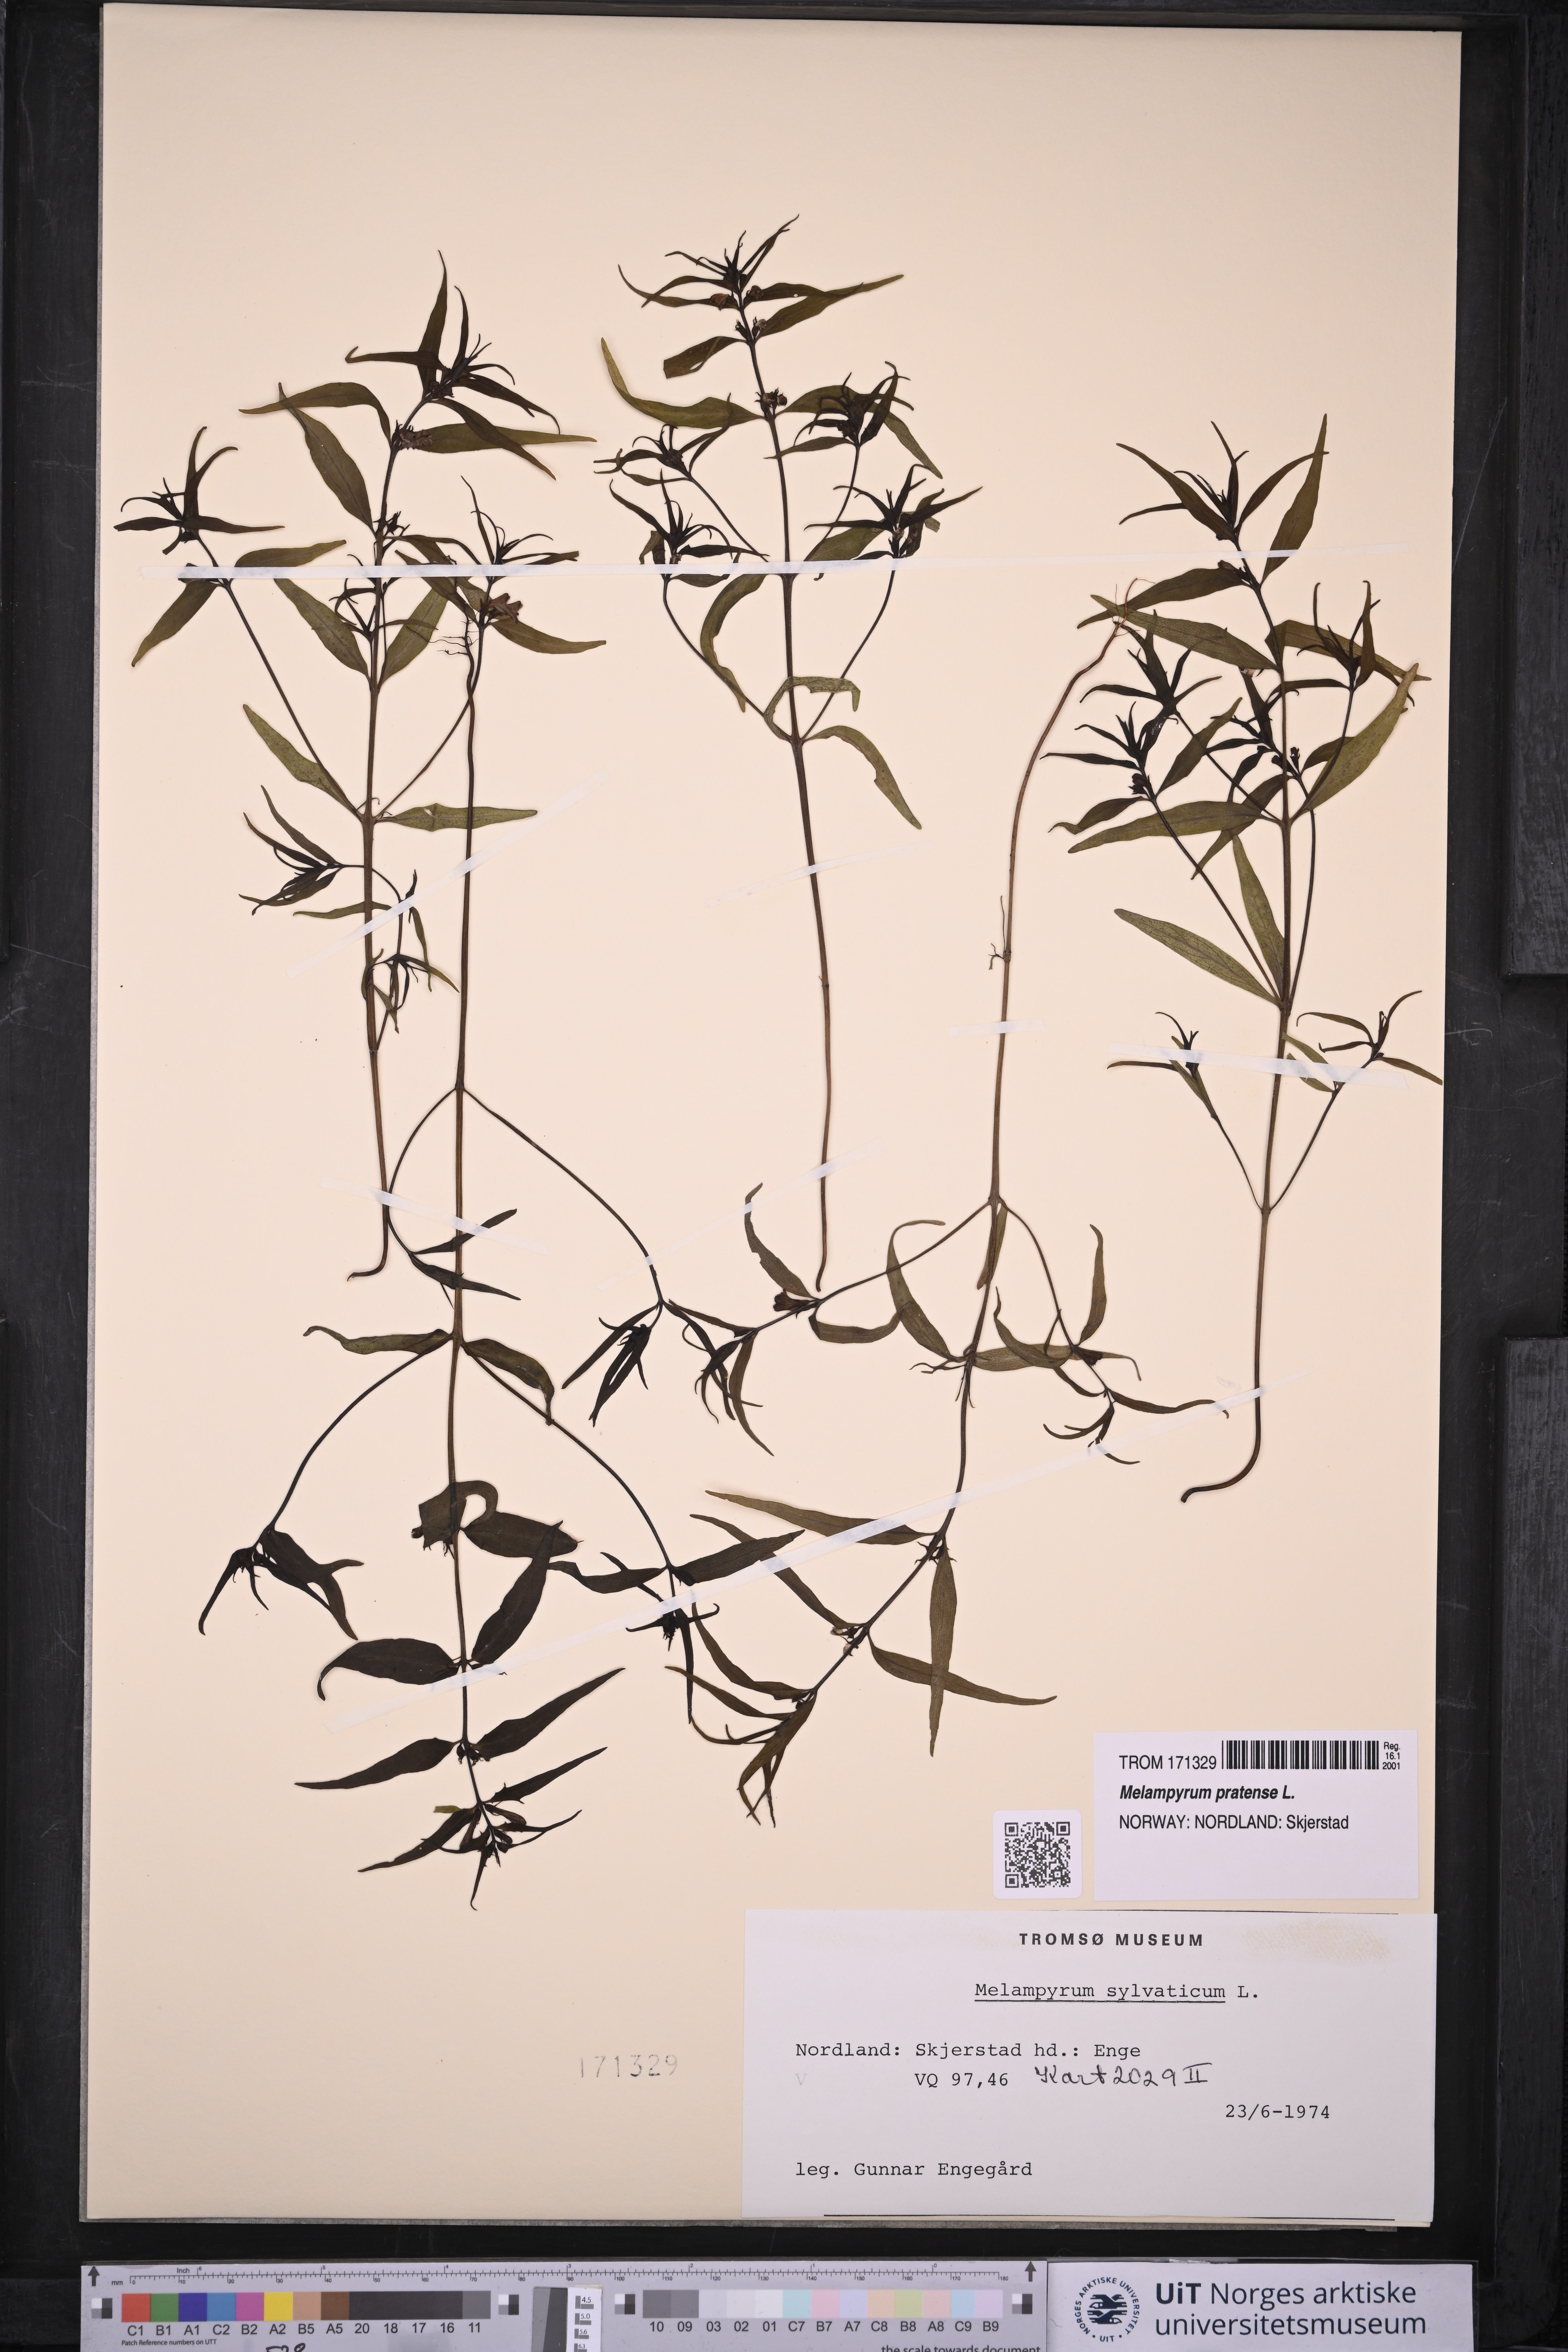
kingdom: Plantae
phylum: Tracheophyta
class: Magnoliopsida
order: Lamiales
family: Orobanchaceae
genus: Melampyrum
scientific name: Melampyrum pratense
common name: Common cow-wheat
